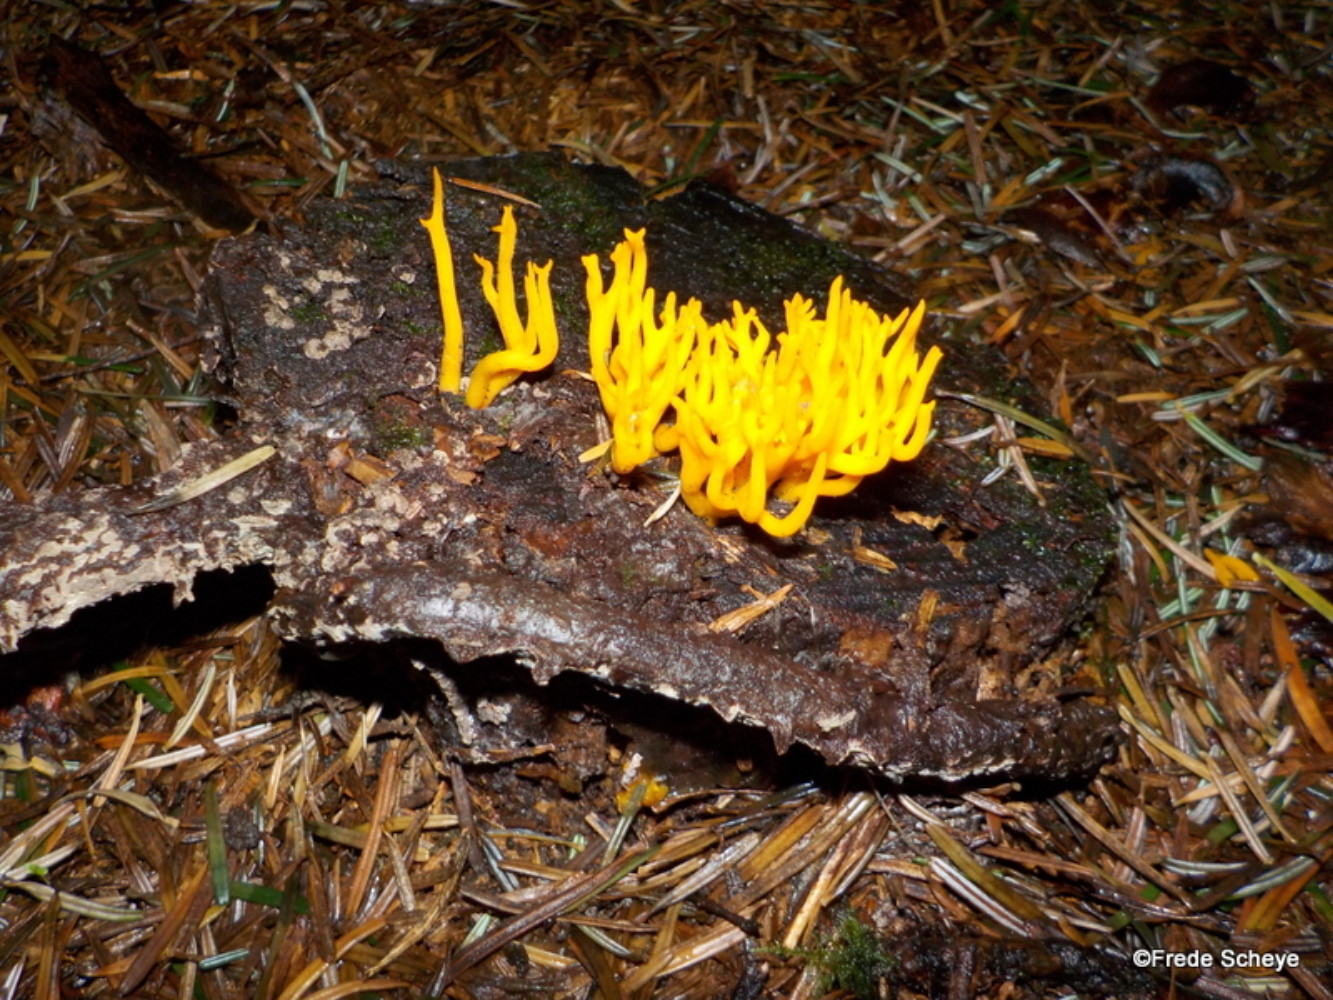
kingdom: Fungi
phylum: Basidiomycota
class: Dacrymycetes
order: Dacrymycetales
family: Dacrymycetaceae
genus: Calocera
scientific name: Calocera viscosa
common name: almindelig guldgaffel
